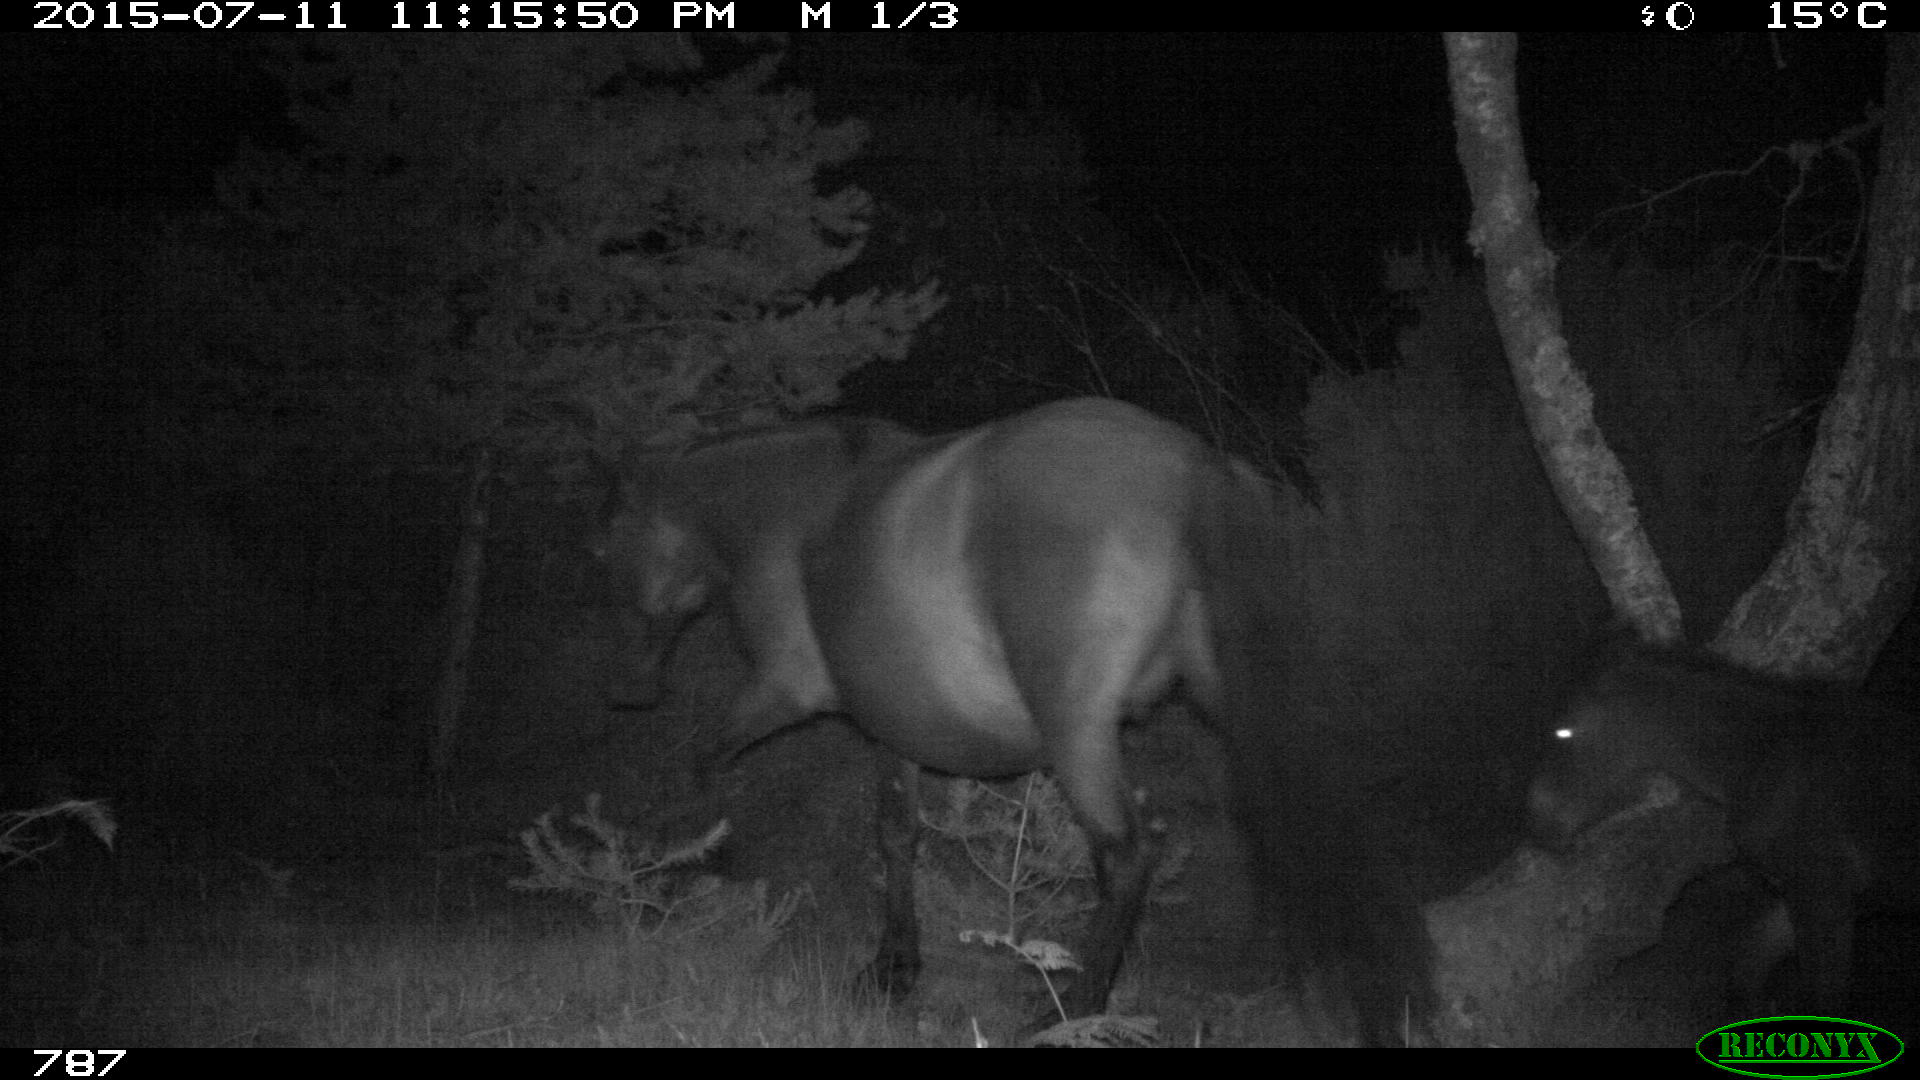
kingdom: Animalia
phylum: Chordata
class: Mammalia
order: Perissodactyla
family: Equidae
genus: Equus
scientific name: Equus caballus
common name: Horse
